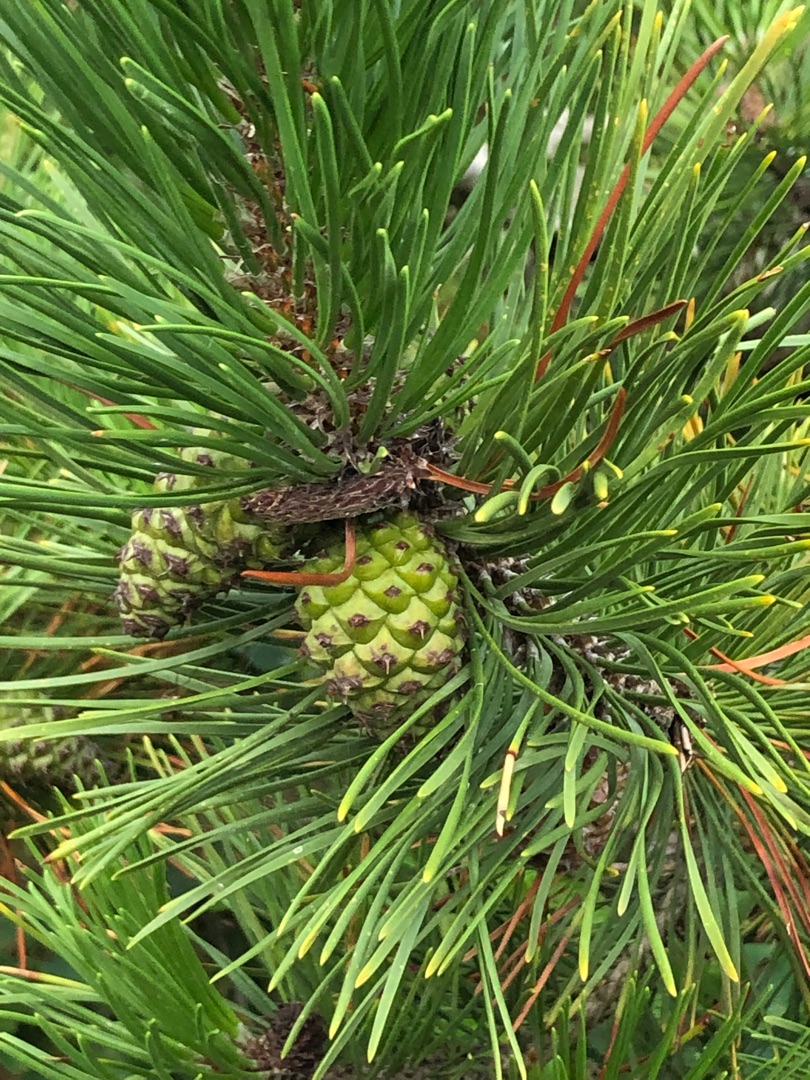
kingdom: Plantae
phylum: Tracheophyta
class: Pinopsida
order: Pinales
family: Pinaceae
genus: Pinus
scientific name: Pinus contorta
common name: Klit-fyr
